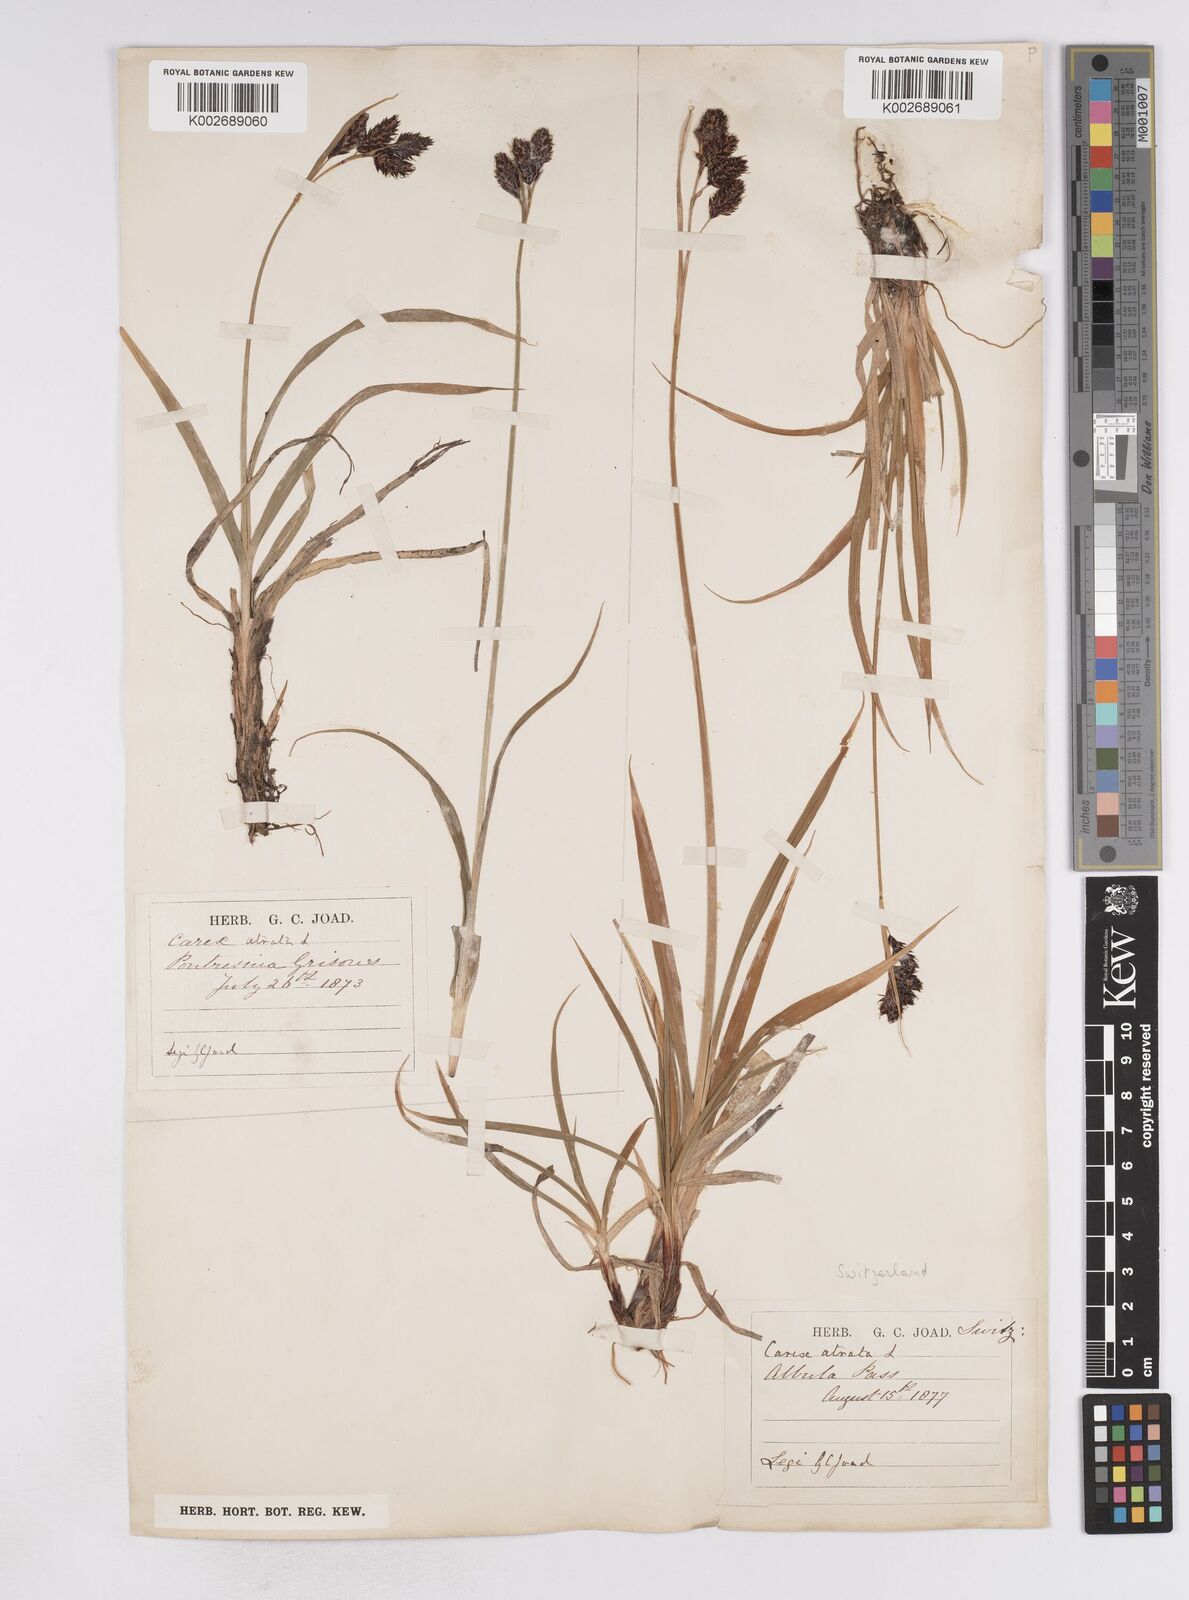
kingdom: Plantae
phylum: Tracheophyta
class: Liliopsida
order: Poales
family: Cyperaceae
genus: Carex
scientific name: Carex atrata
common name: Black alpine sedge
